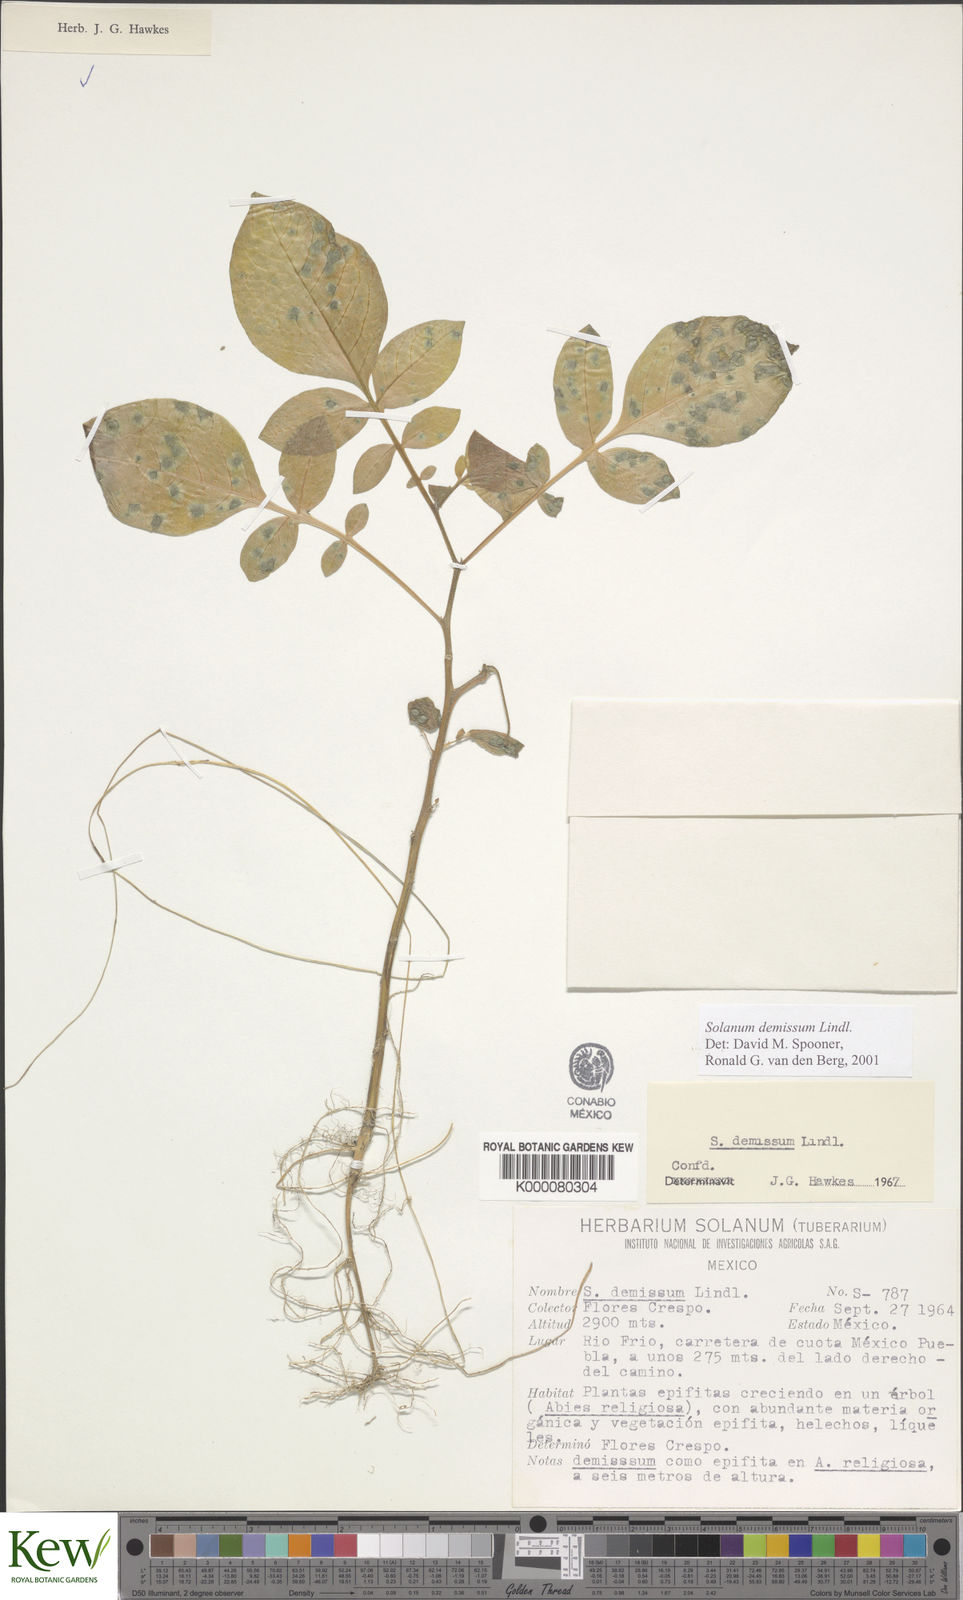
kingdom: Plantae
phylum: Tracheophyta
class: Magnoliopsida
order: Solanales
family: Solanaceae
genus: Solanum
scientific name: Solanum demissum
